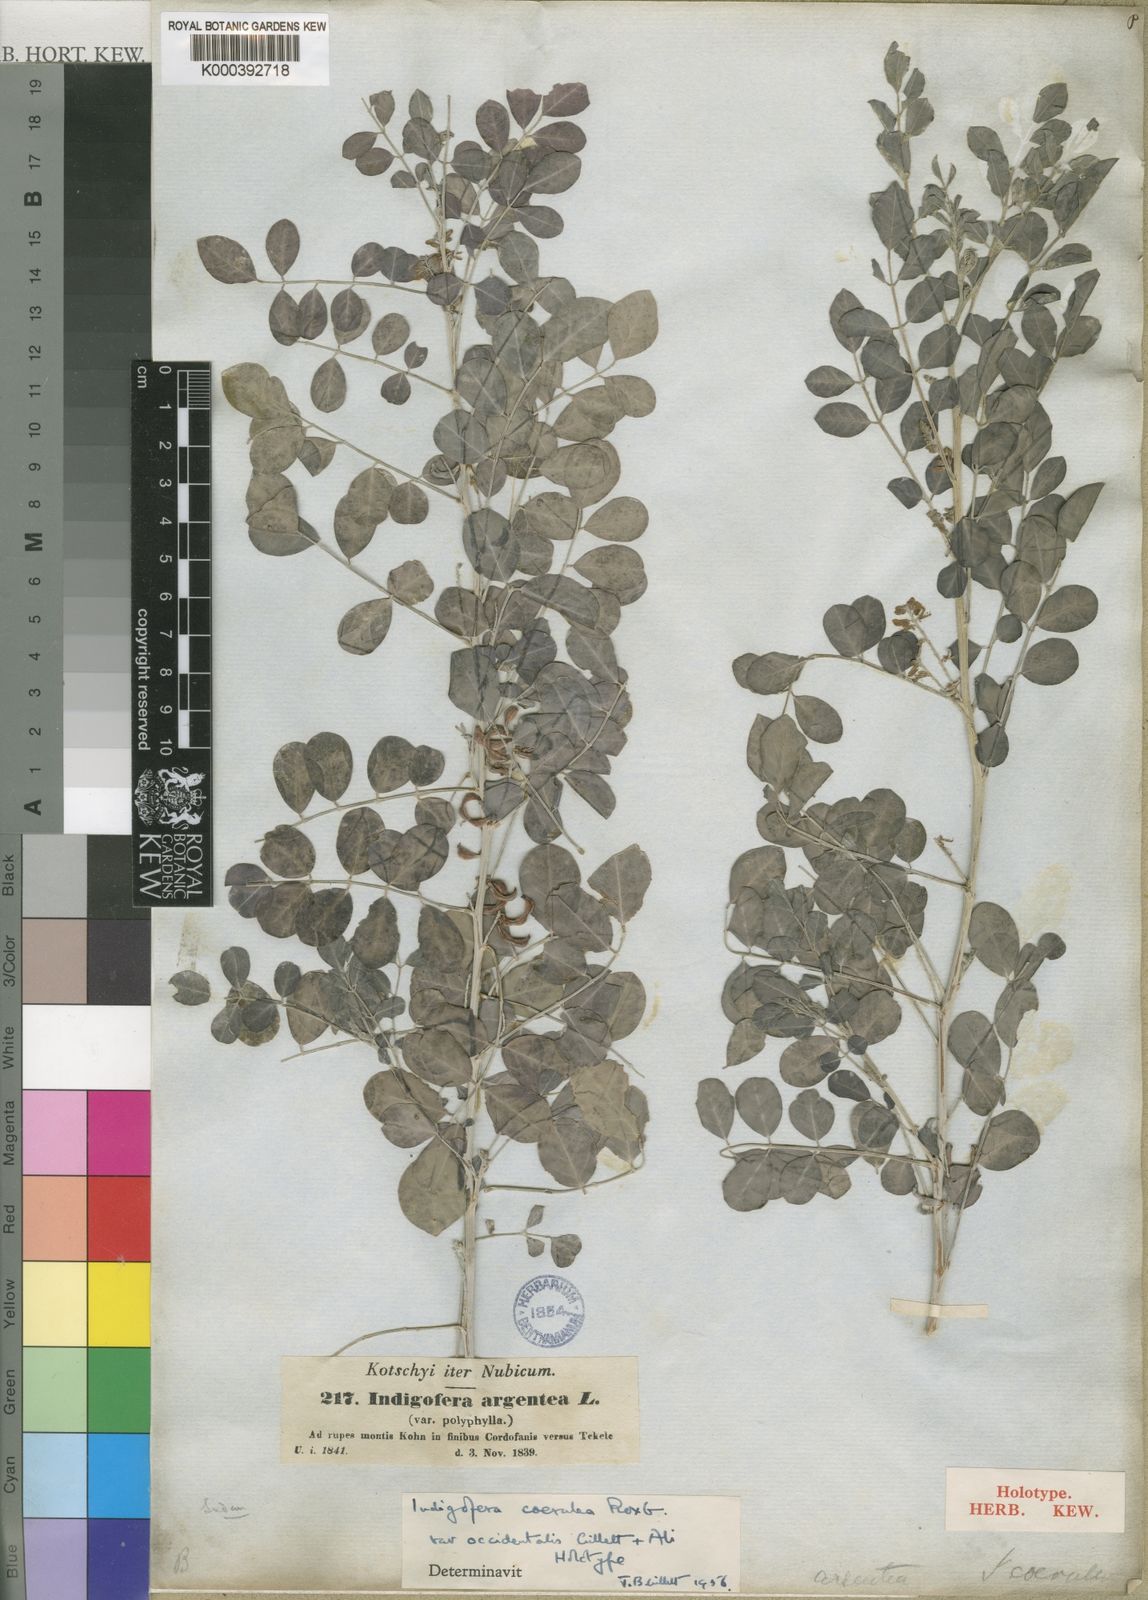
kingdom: Plantae
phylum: Tracheophyta
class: Magnoliopsida
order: Fabales
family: Fabaceae
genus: Indigofera
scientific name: Indigofera coerulea
